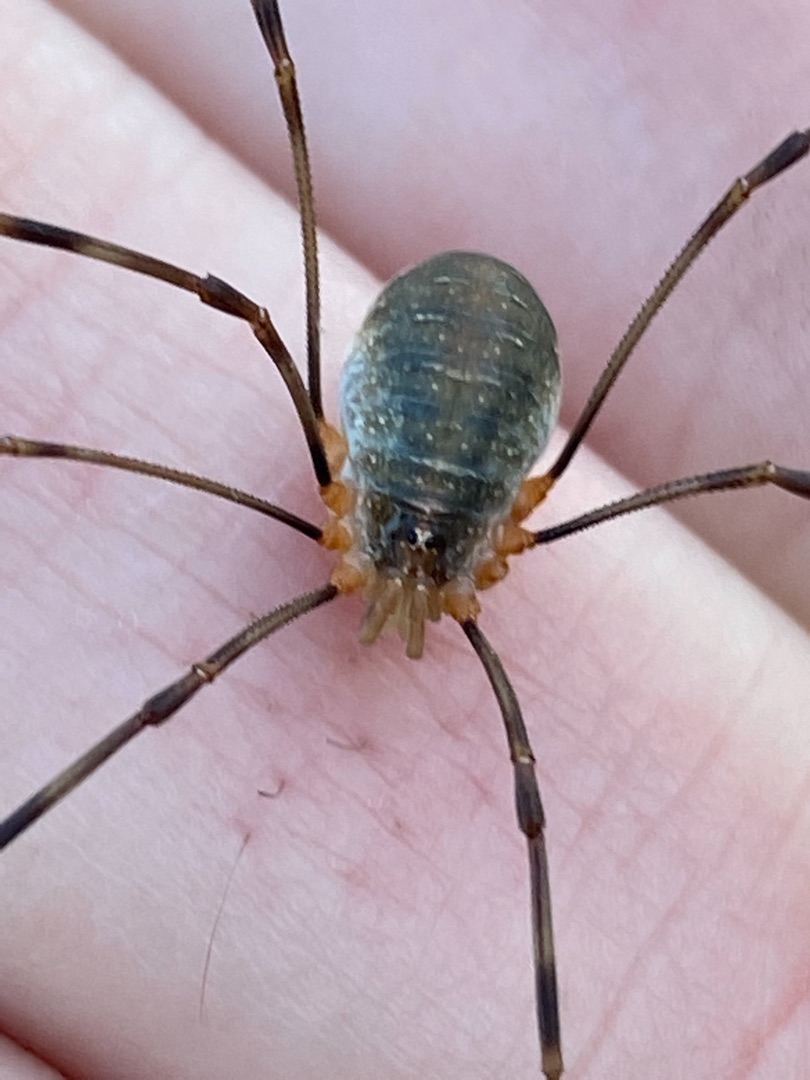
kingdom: Animalia
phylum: Arthropoda
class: Arachnida
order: Opiliones
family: Phalangiidae
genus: Opilio
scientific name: Opilio canestrinii
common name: Orange vægmejer
